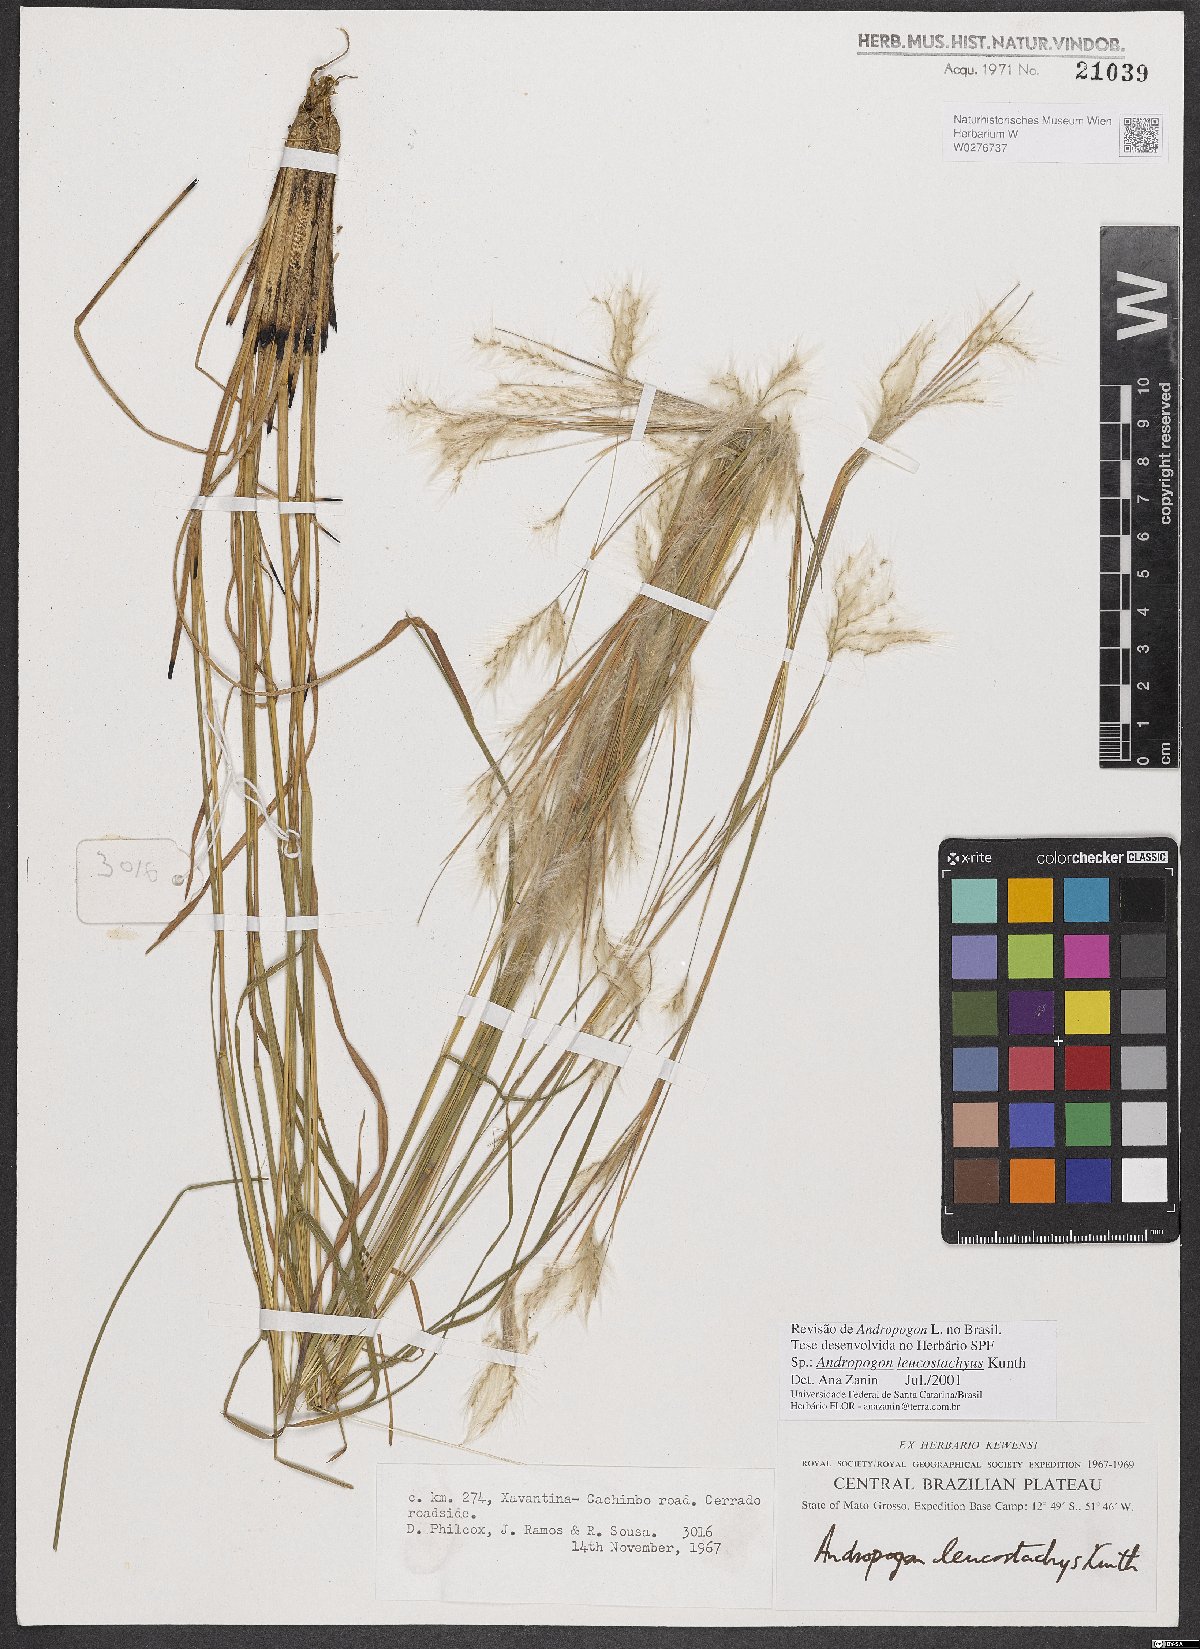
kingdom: Plantae
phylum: Tracheophyta
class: Liliopsida
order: Poales
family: Poaceae
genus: Andropogon
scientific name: Andropogon leucostachyus
